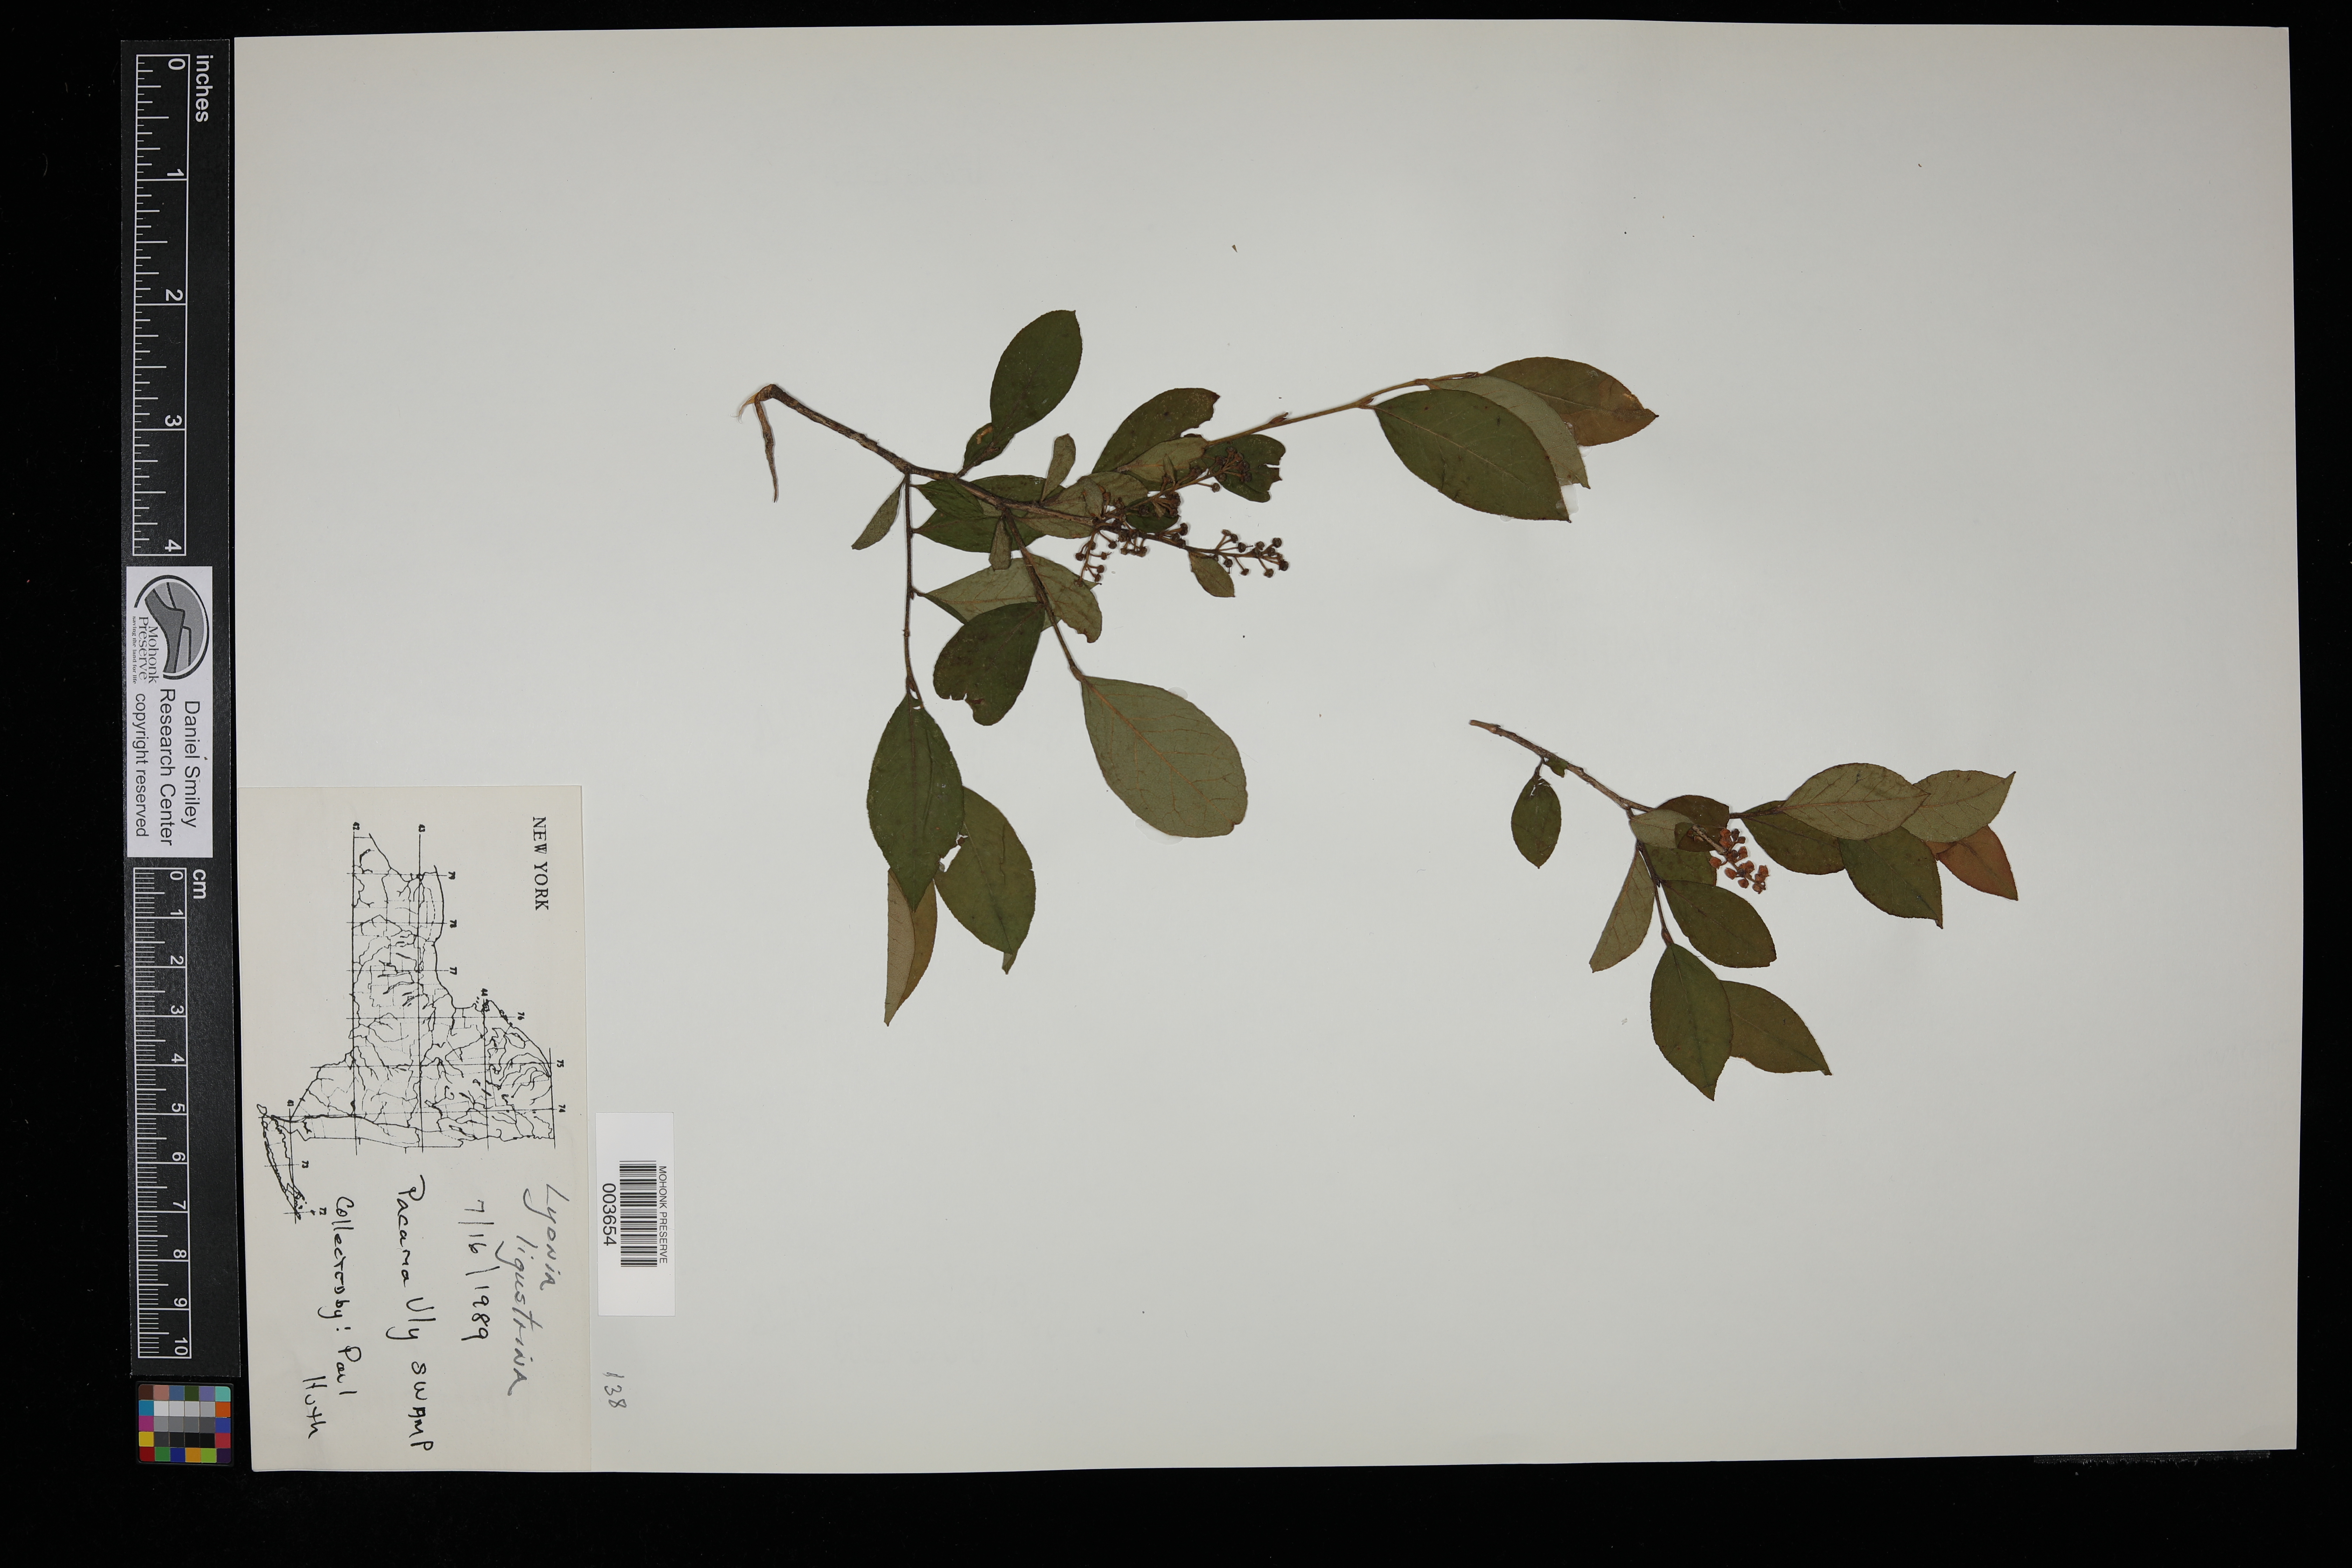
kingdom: Plantae
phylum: Tracheophyta
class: Magnoliopsida
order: Ericales
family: Ericaceae
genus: Lyonia
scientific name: Lyonia ligustrina
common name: Maleberry
